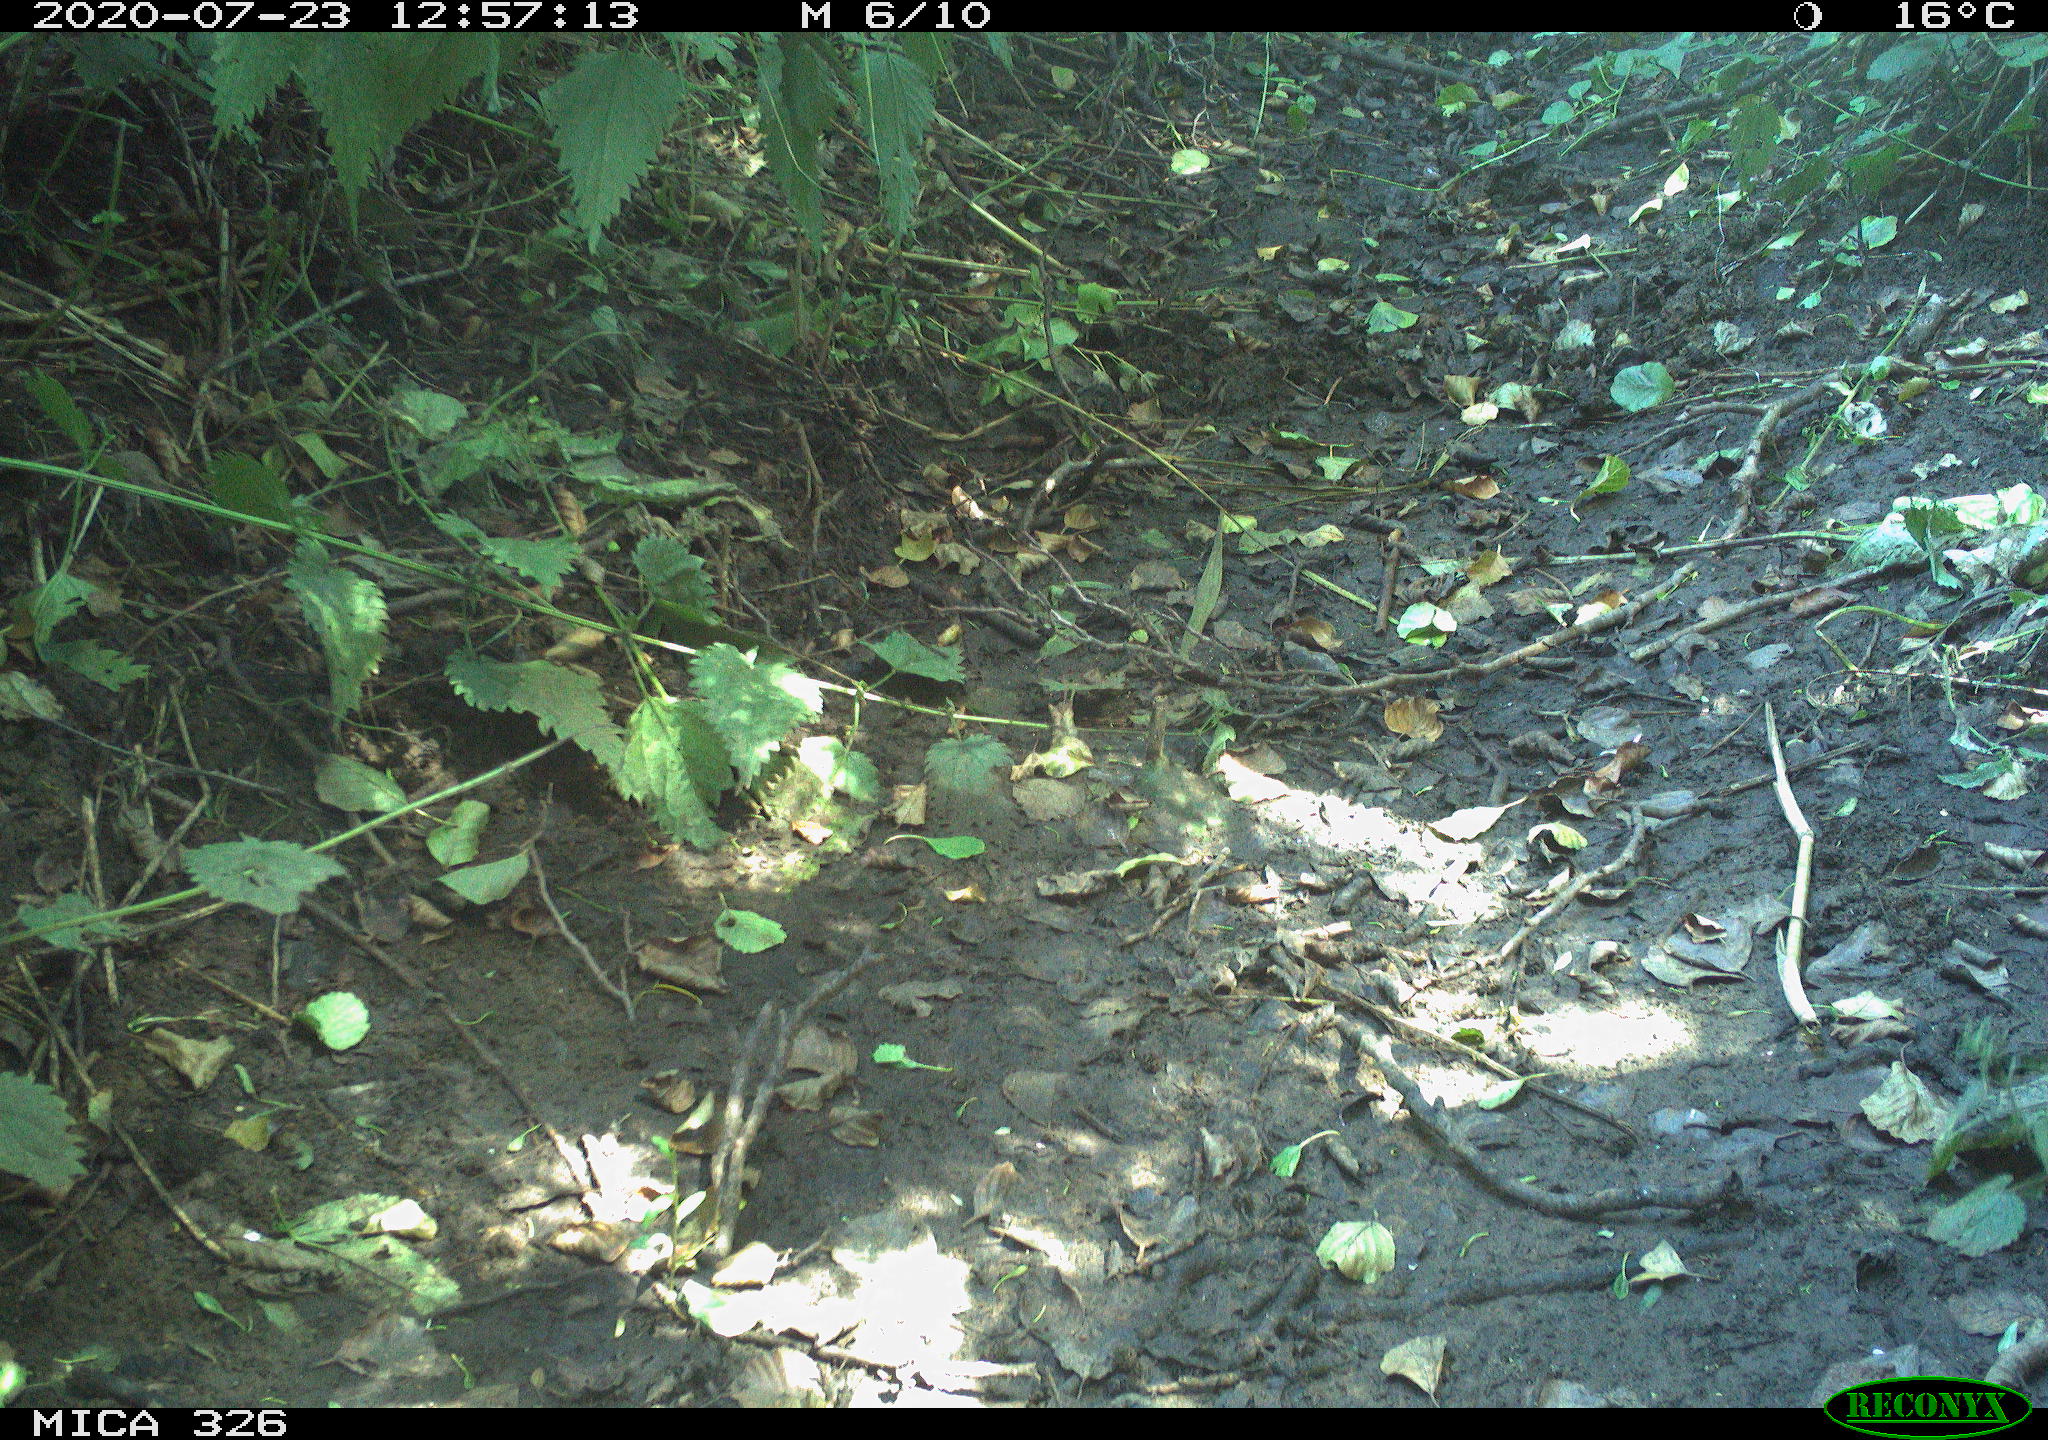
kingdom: Animalia
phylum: Chordata
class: Aves
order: Passeriformes
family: Turdidae
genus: Turdus
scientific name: Turdus philomelos
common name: Song thrush
